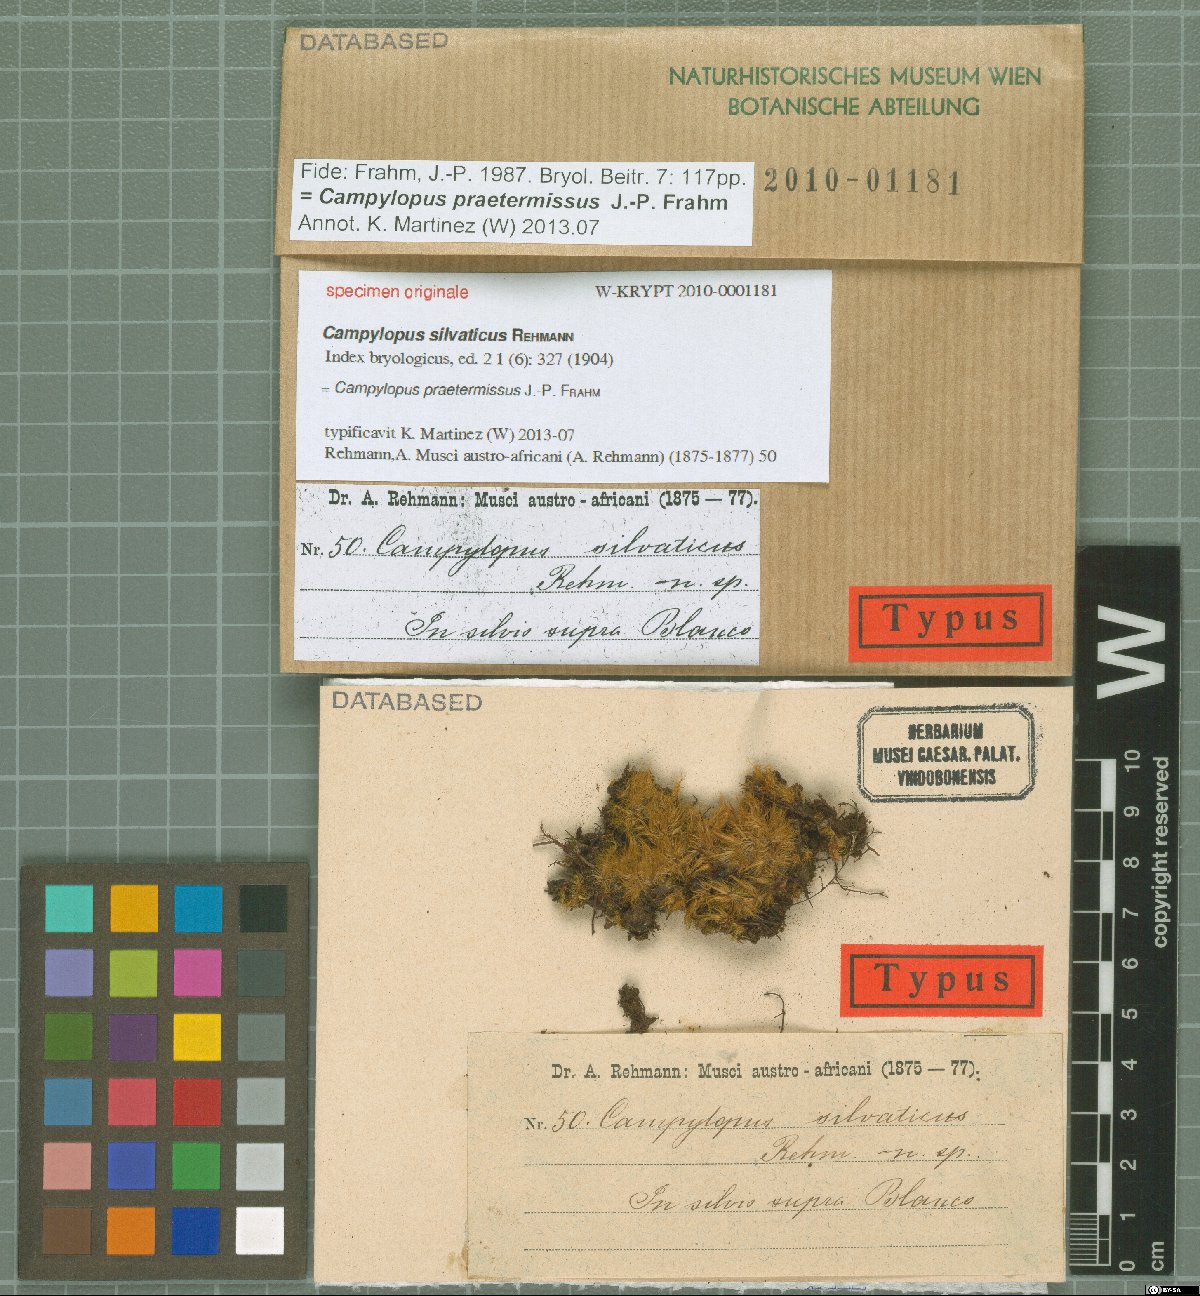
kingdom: Protozoa
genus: Campylopus
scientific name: Campylopus
